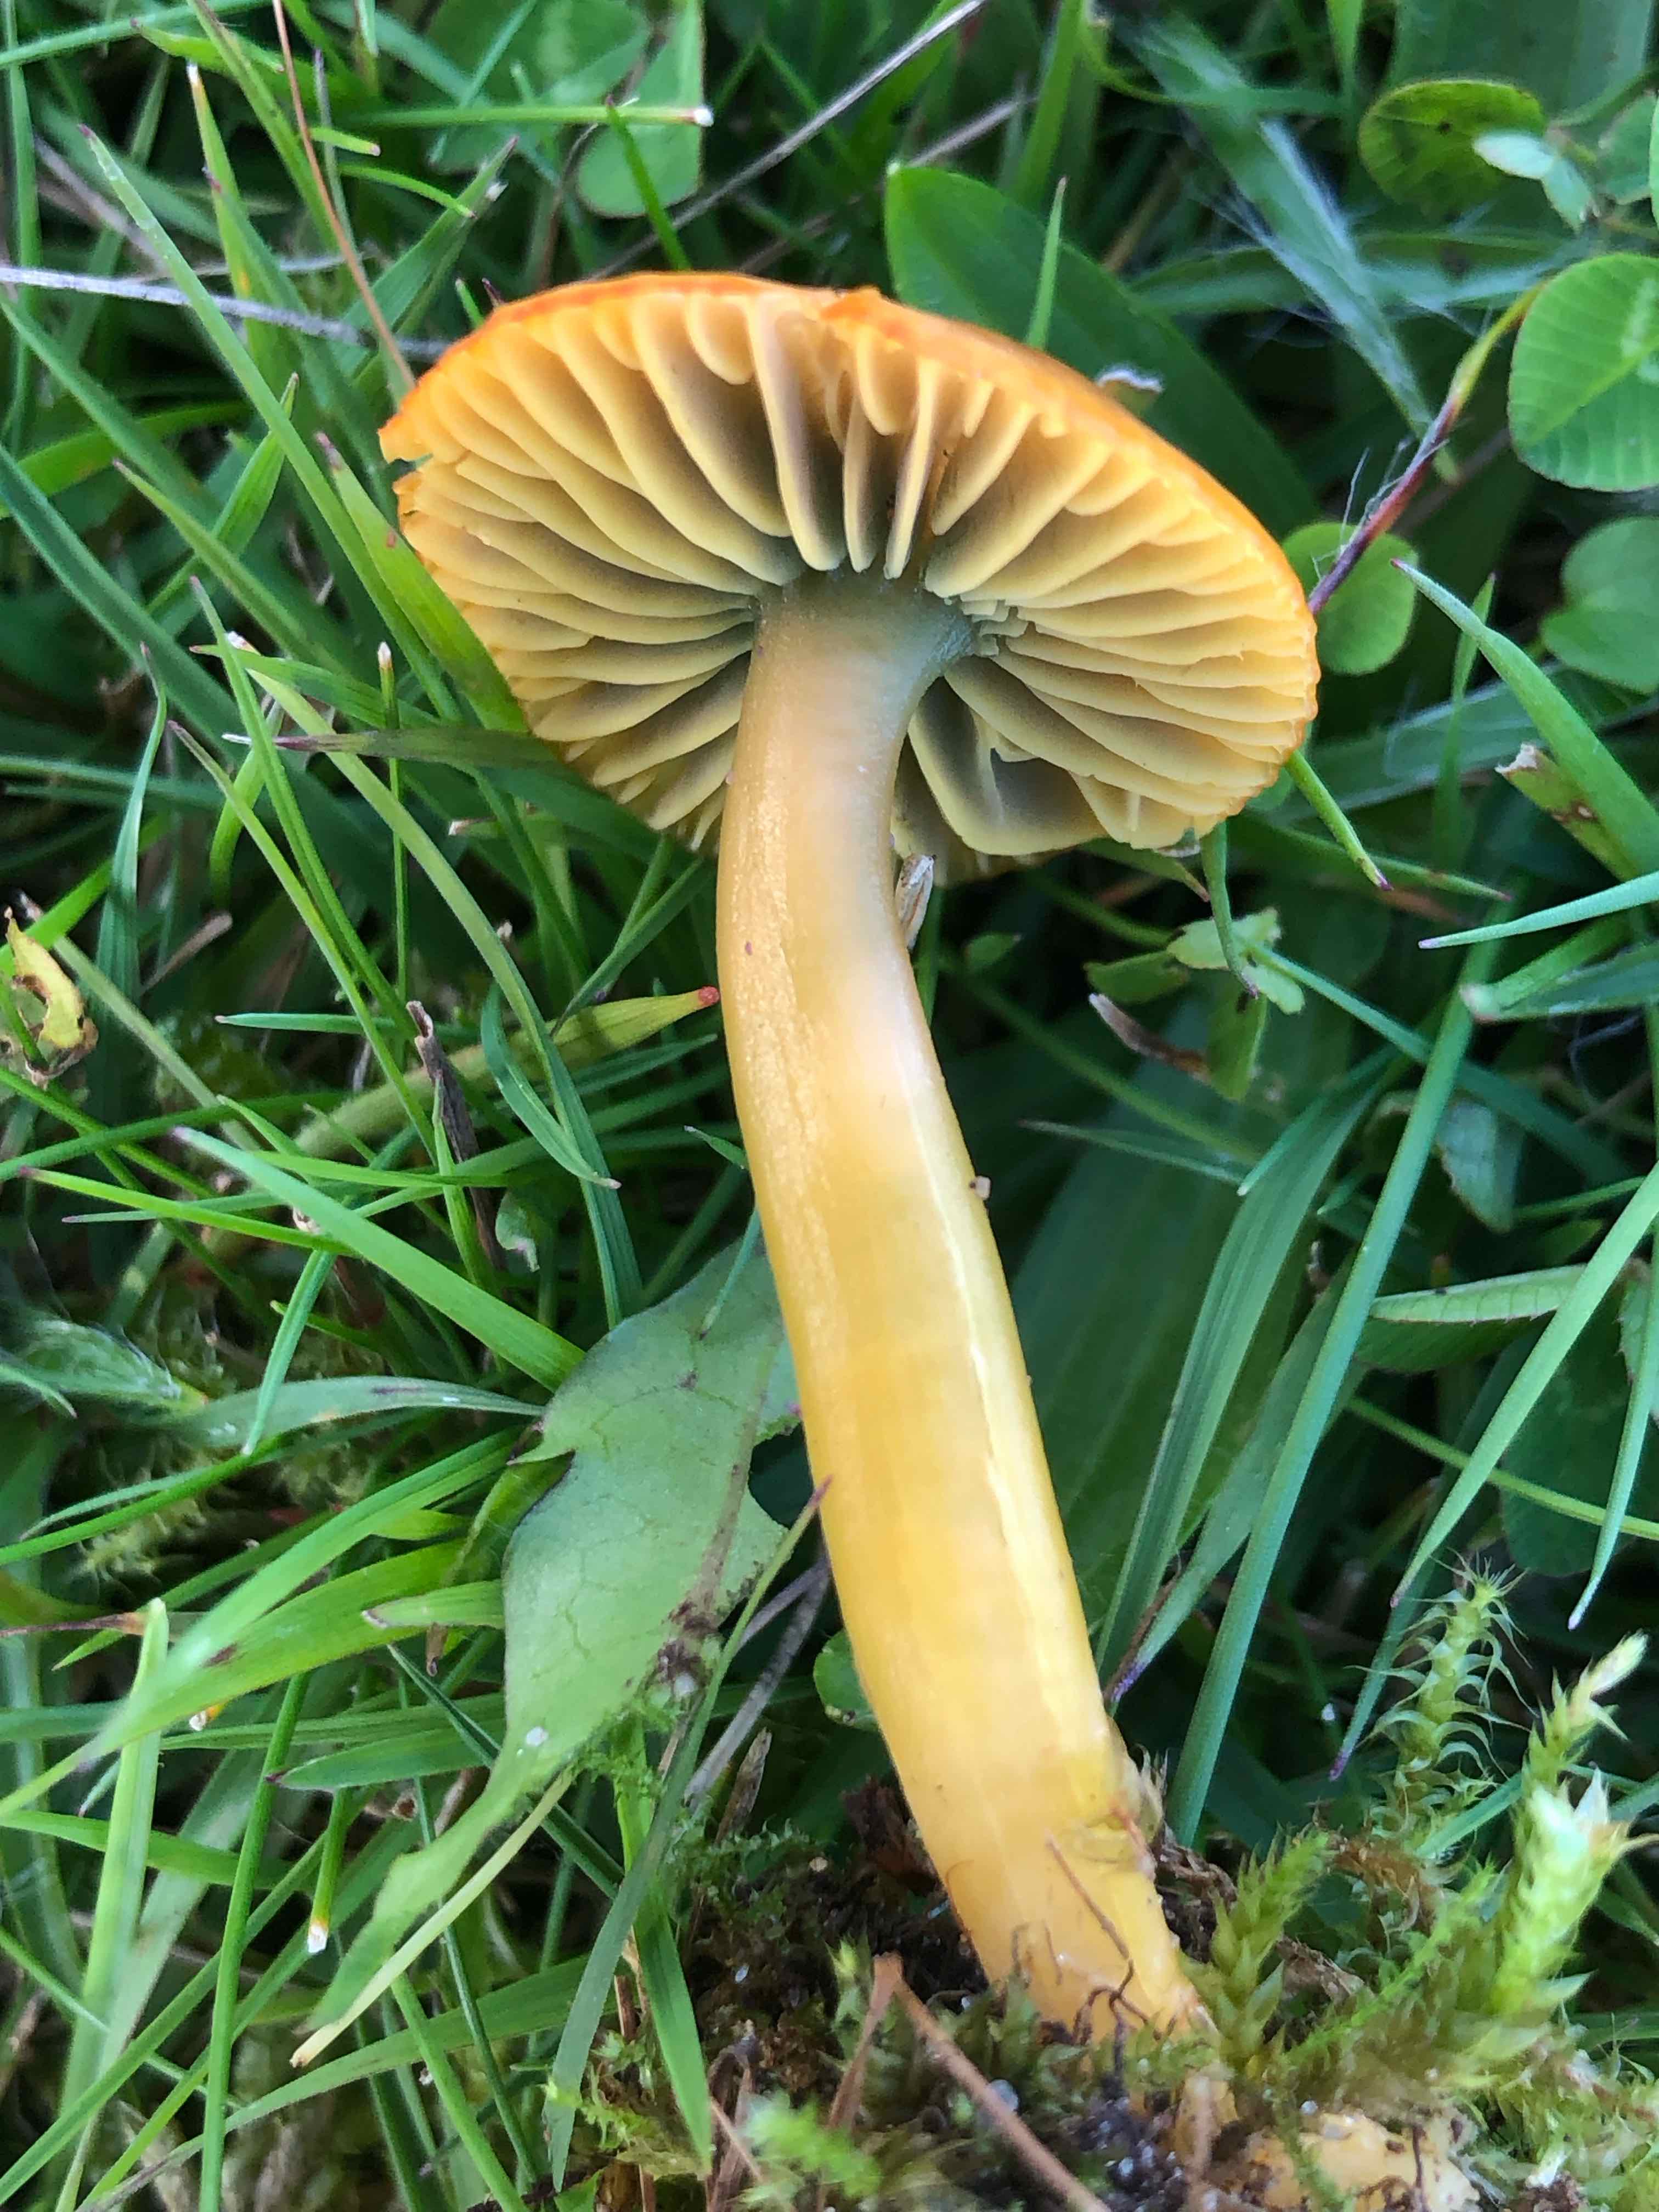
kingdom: Fungi
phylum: Basidiomycota
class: Agaricomycetes
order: Agaricales
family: Hygrophoraceae
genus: Gliophorus
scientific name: Gliophorus psittacinus
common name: papegøje-vokshat
